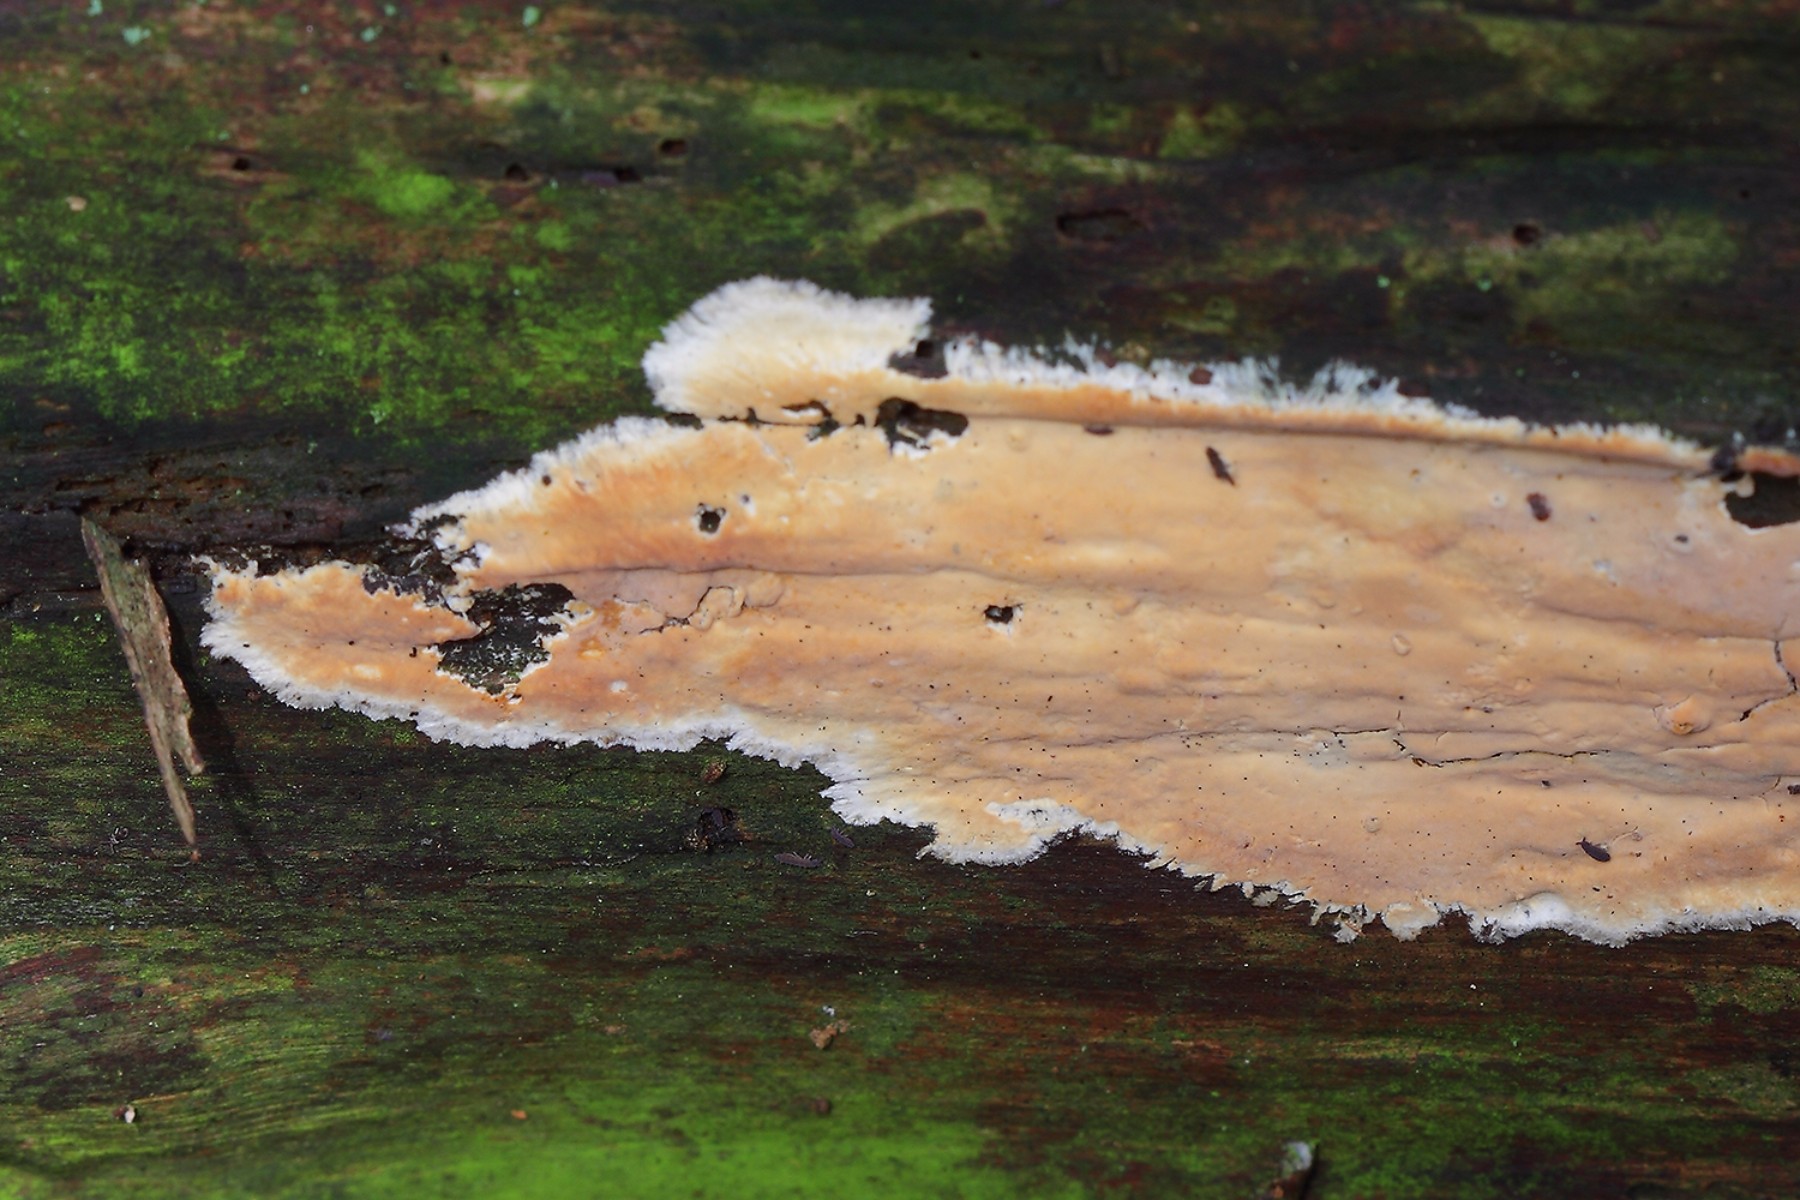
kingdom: Fungi
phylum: Basidiomycota
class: Agaricomycetes
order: Russulales
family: Peniophoraceae
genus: Gloiothele
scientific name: Gloiothele citrina
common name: citronskorpe
